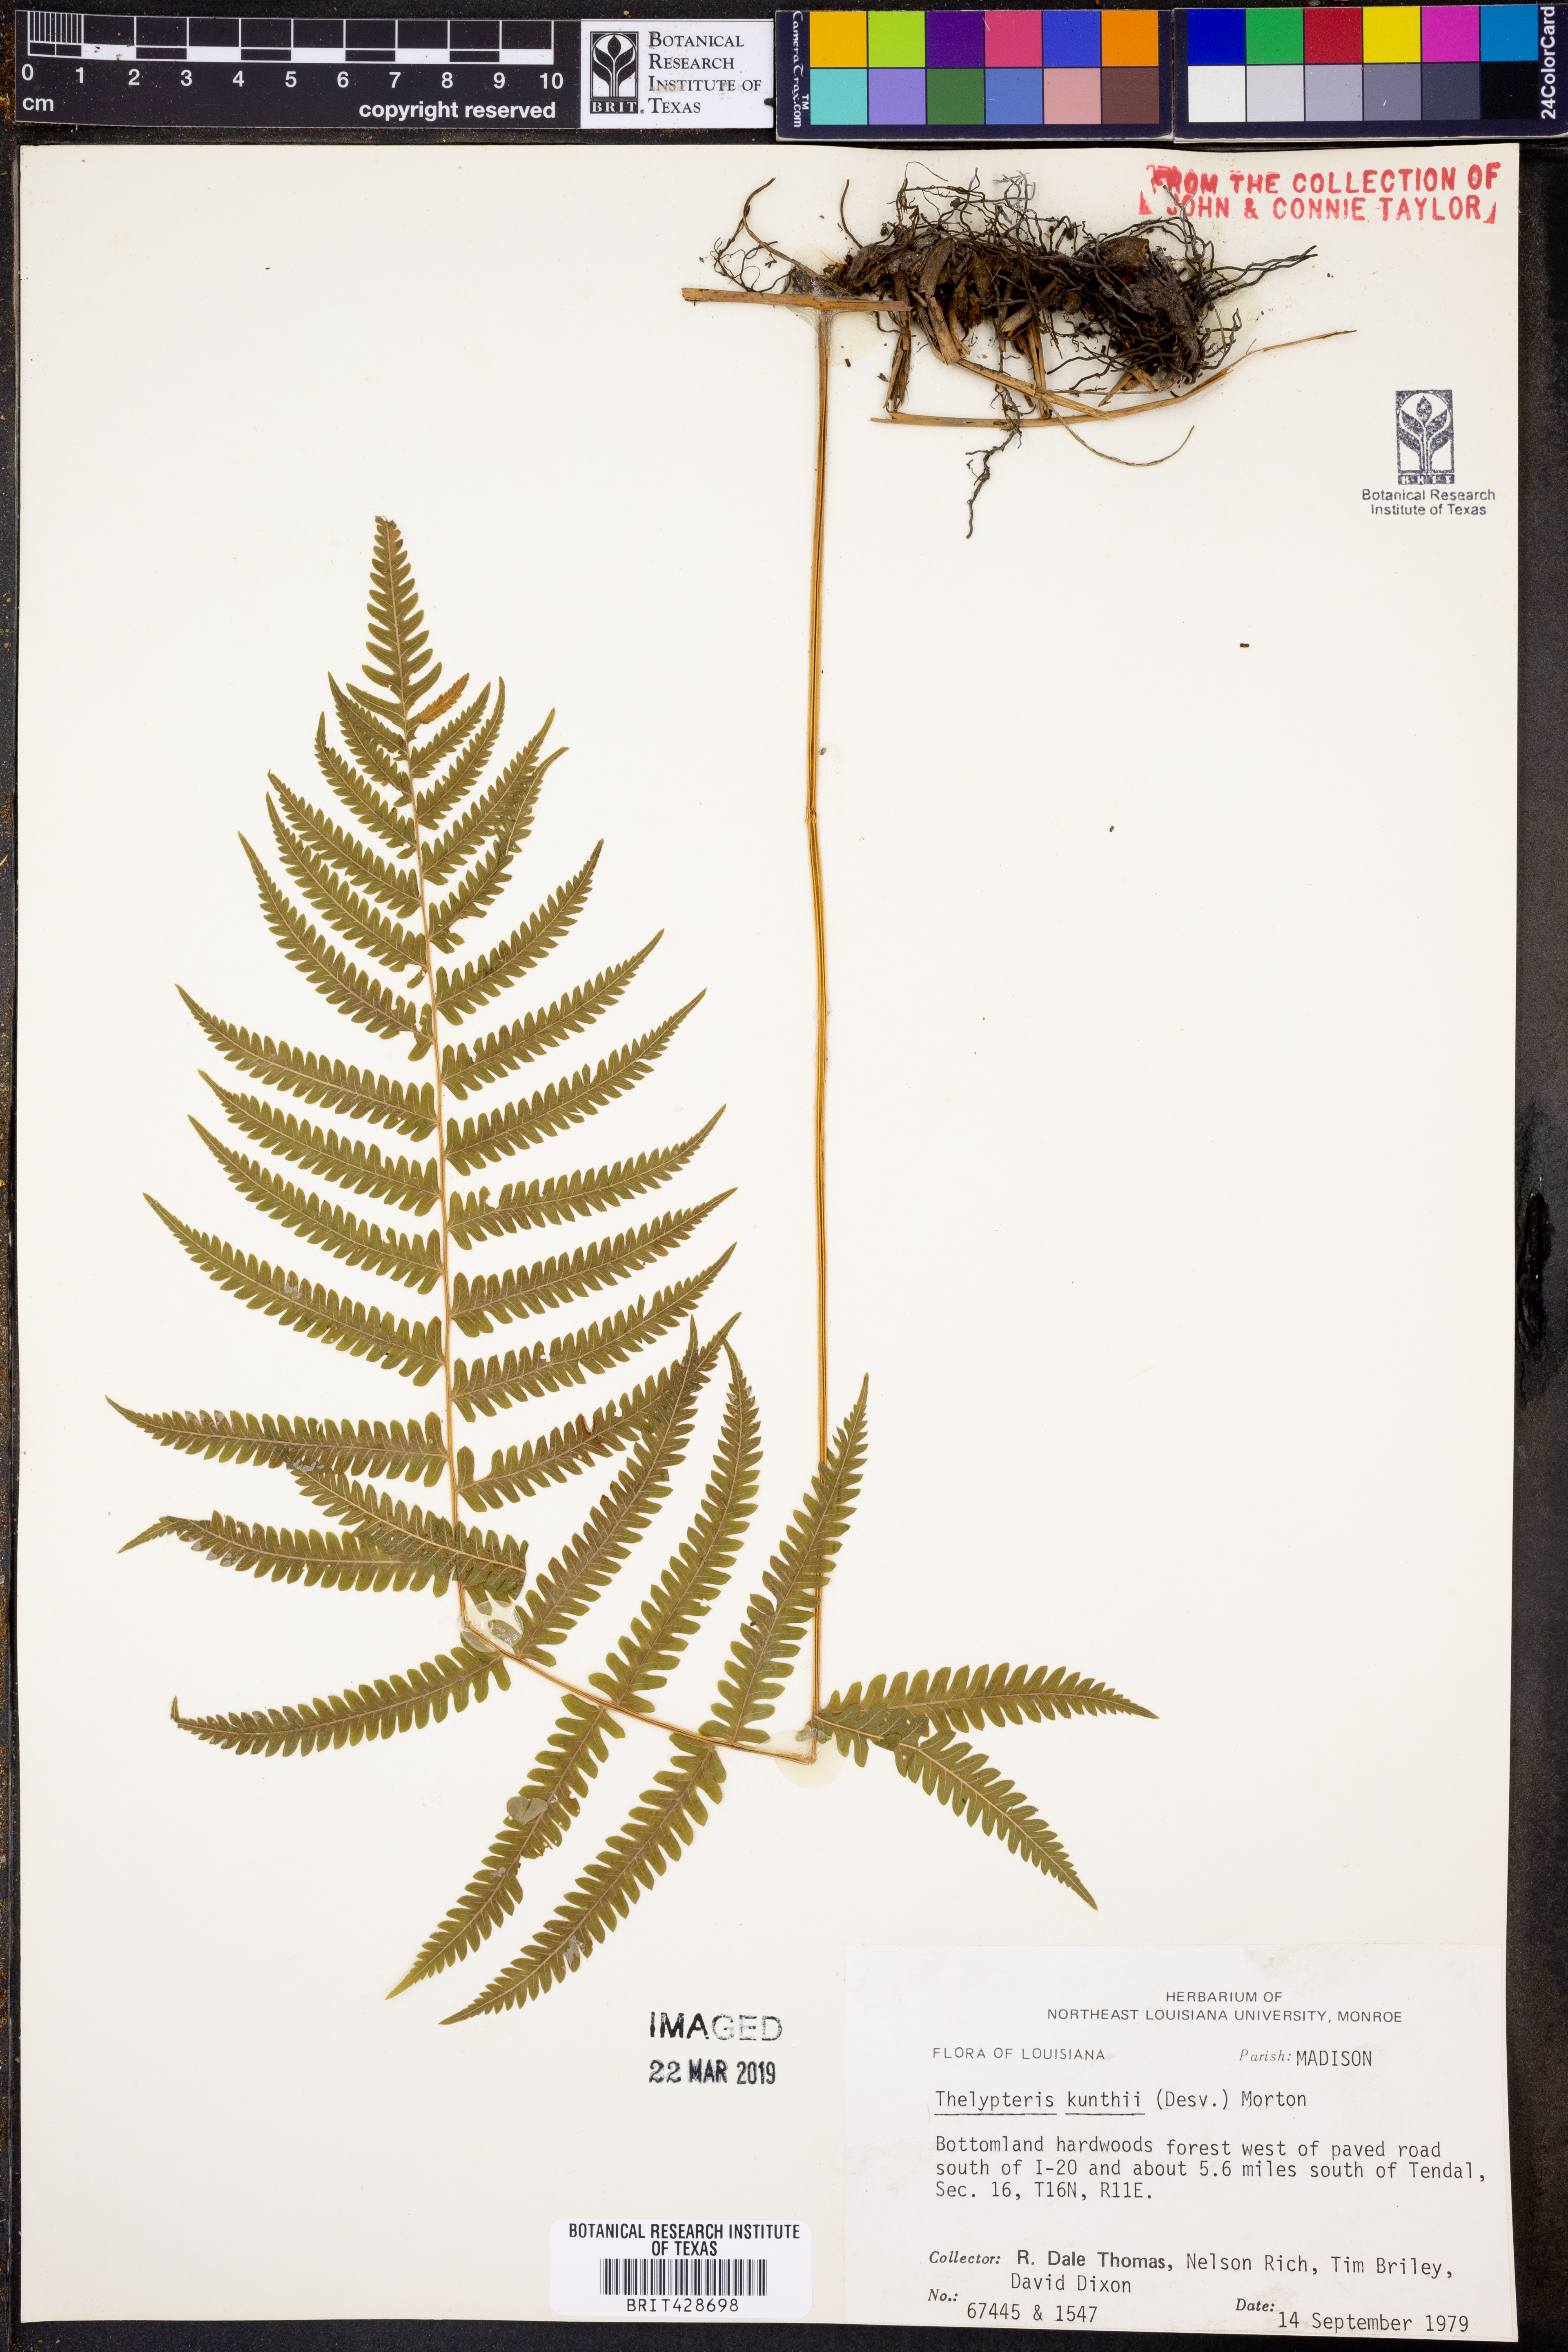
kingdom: Plantae
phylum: Tracheophyta
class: Polypodiopsida
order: Polypodiales
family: Thelypteridaceae
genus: Pelazoneuron
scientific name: Pelazoneuron kunthii
